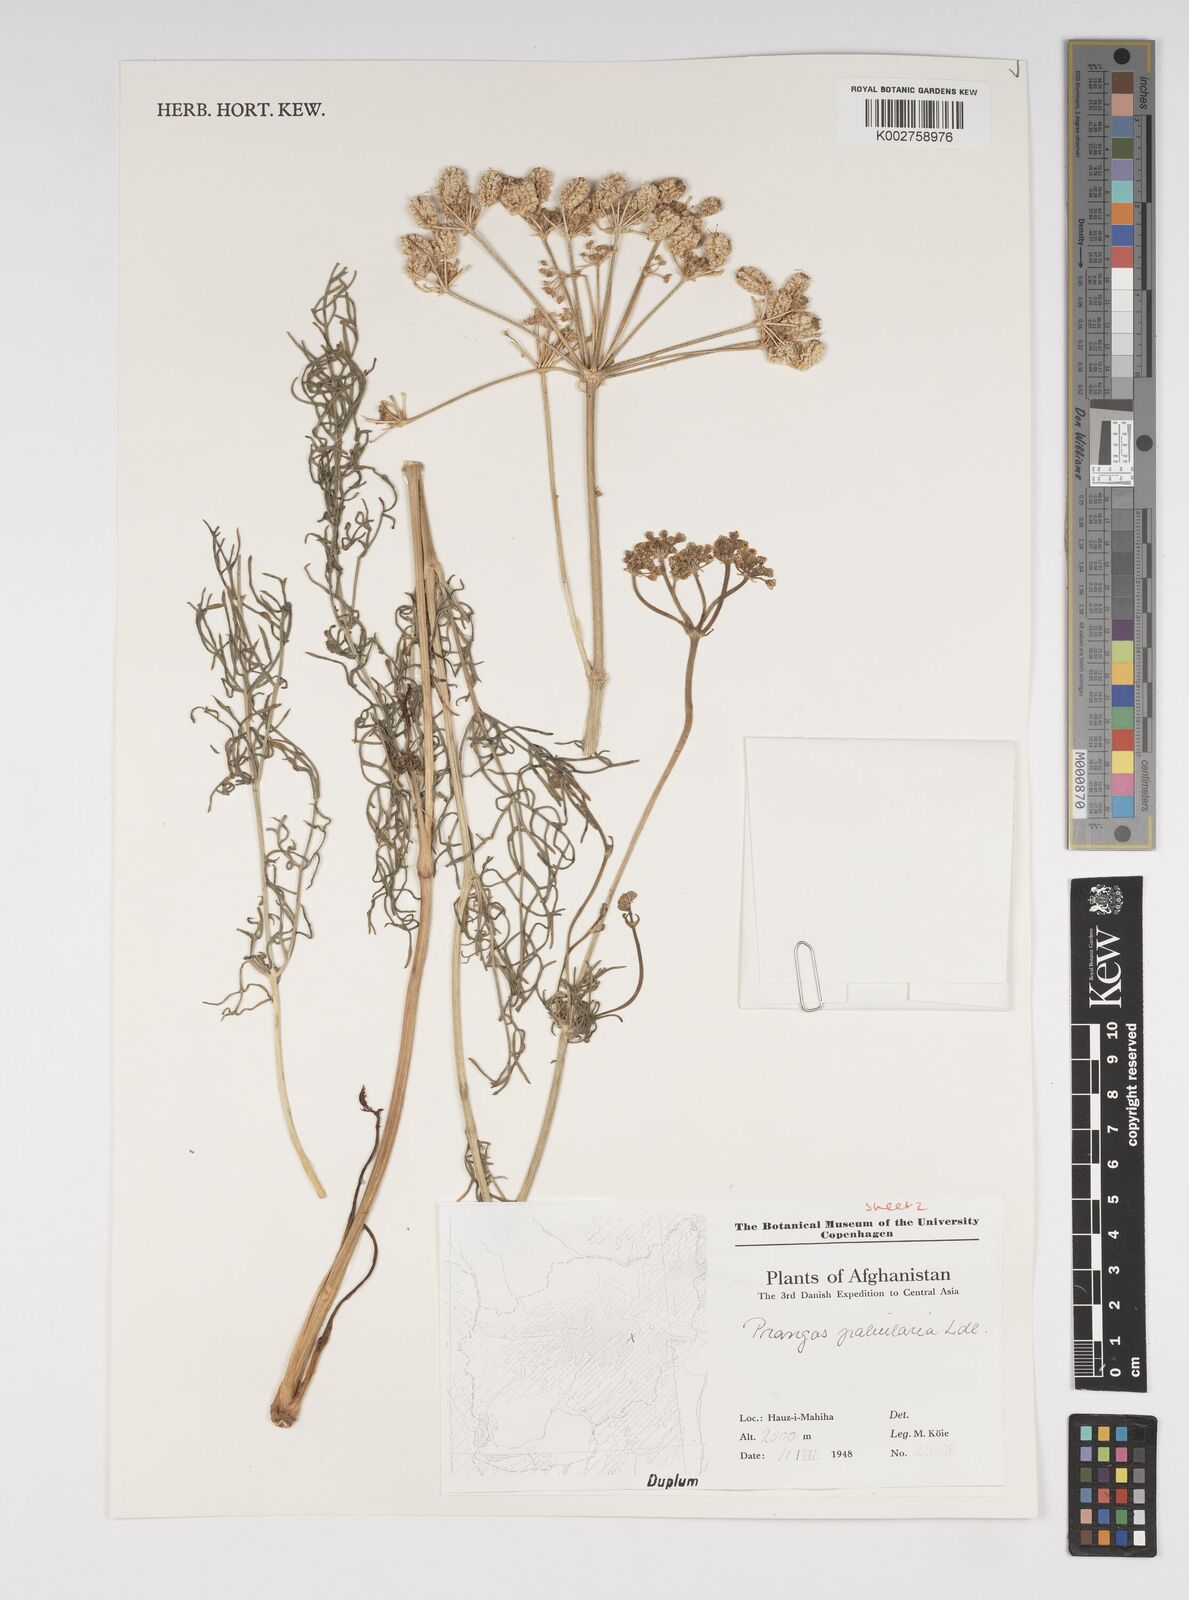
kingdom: Plantae
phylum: Tracheophyta
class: Magnoliopsida
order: Apiales
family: Apiaceae
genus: Prangos
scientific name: Prangos pabularia
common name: Yugan
